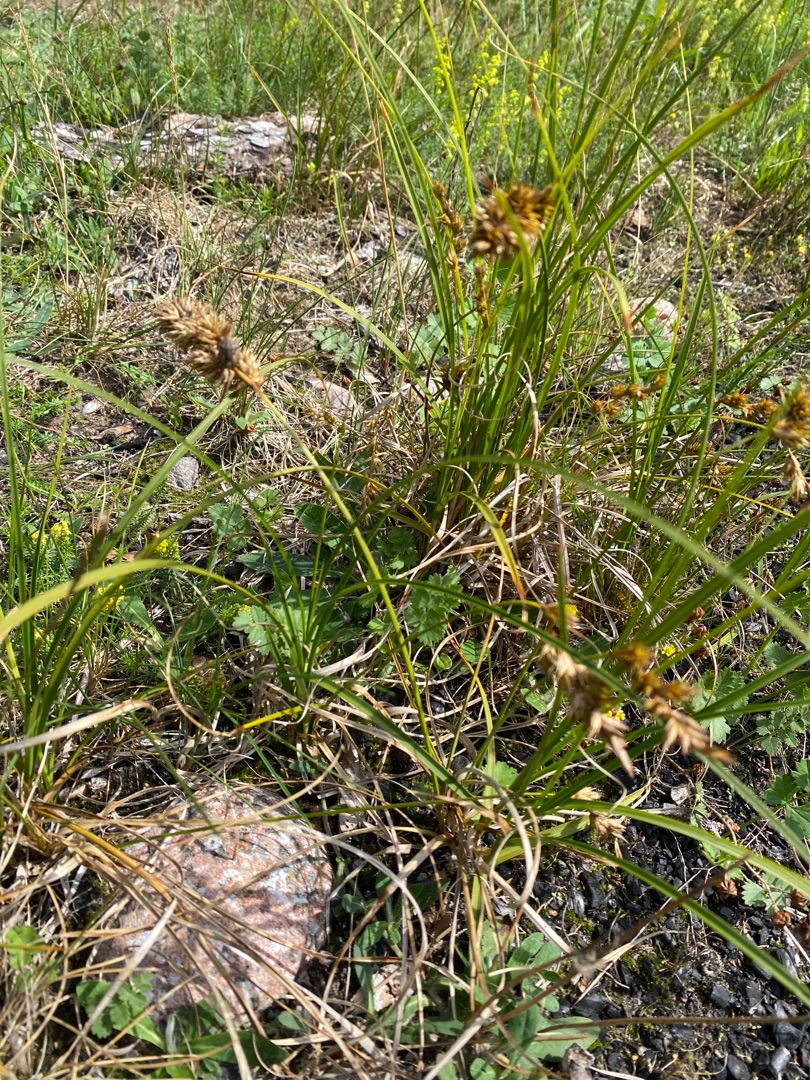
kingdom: Plantae
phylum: Tracheophyta
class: Liliopsida
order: Poales
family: Cyperaceae
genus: Carex
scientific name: Carex arenaria
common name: Sand-star
